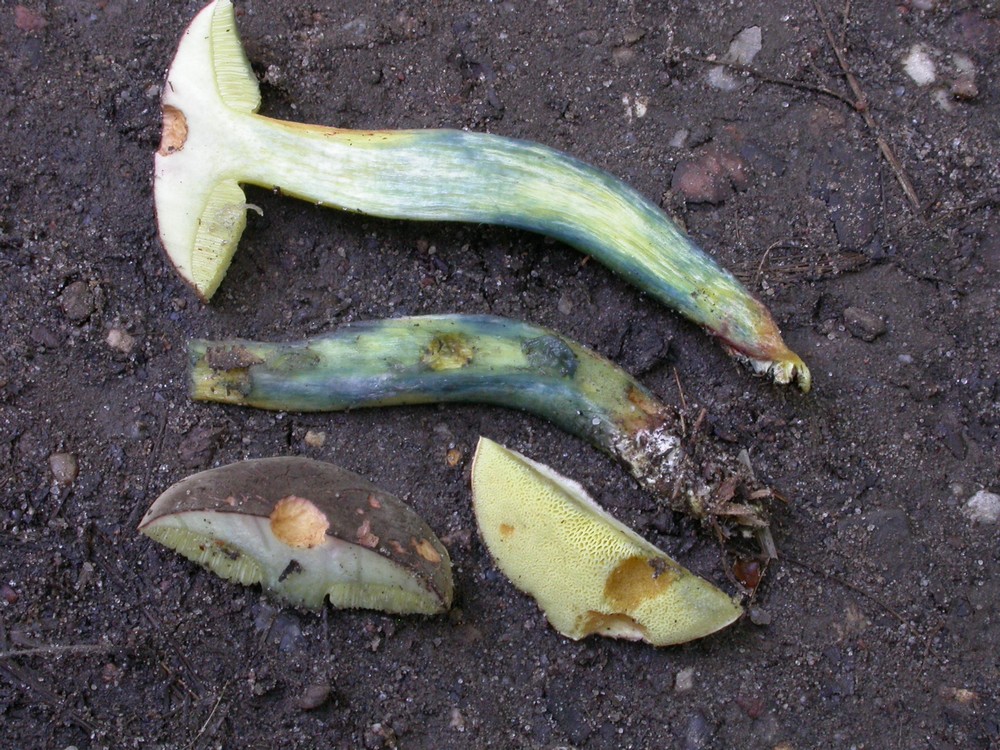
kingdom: Fungi
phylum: Basidiomycota
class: Agaricomycetes
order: Boletales
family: Boletaceae
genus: Xerocomellus
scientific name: Xerocomellus cisalpinus
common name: finsprukken rørhat
